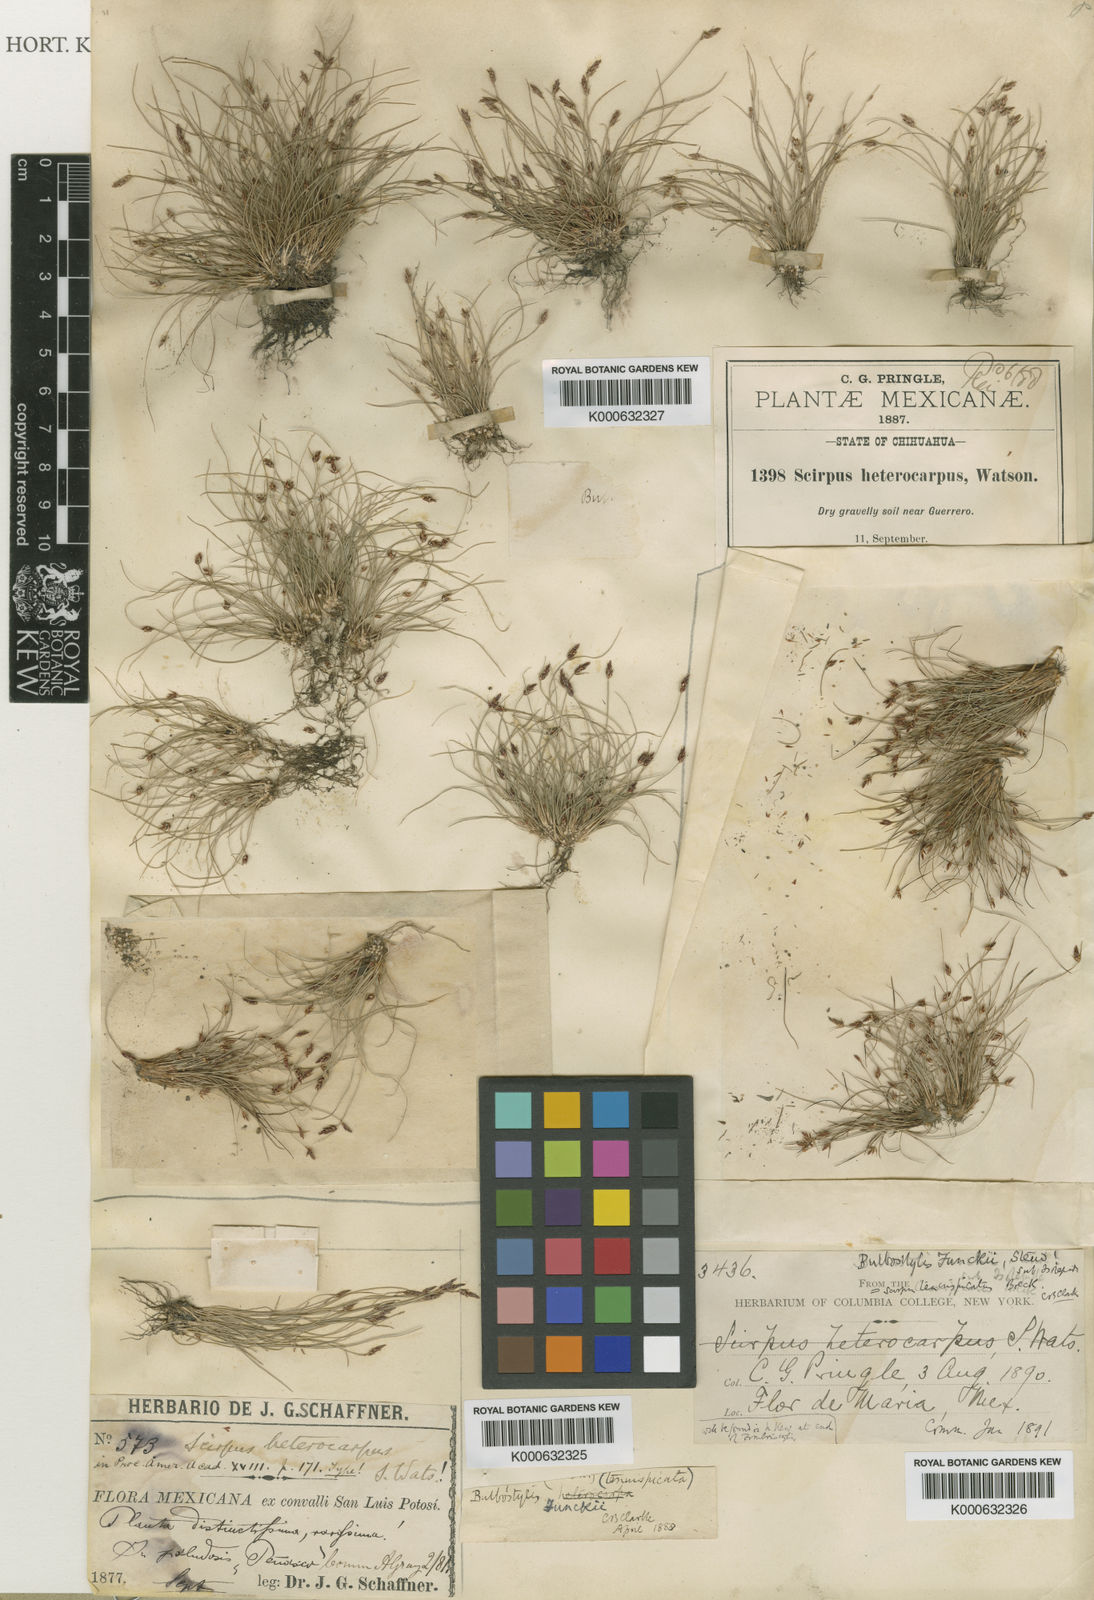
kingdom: Plantae
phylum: Tracheophyta
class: Liliopsida
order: Poales
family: Cyperaceae
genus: Bulbostylis
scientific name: Bulbostylis funckii
